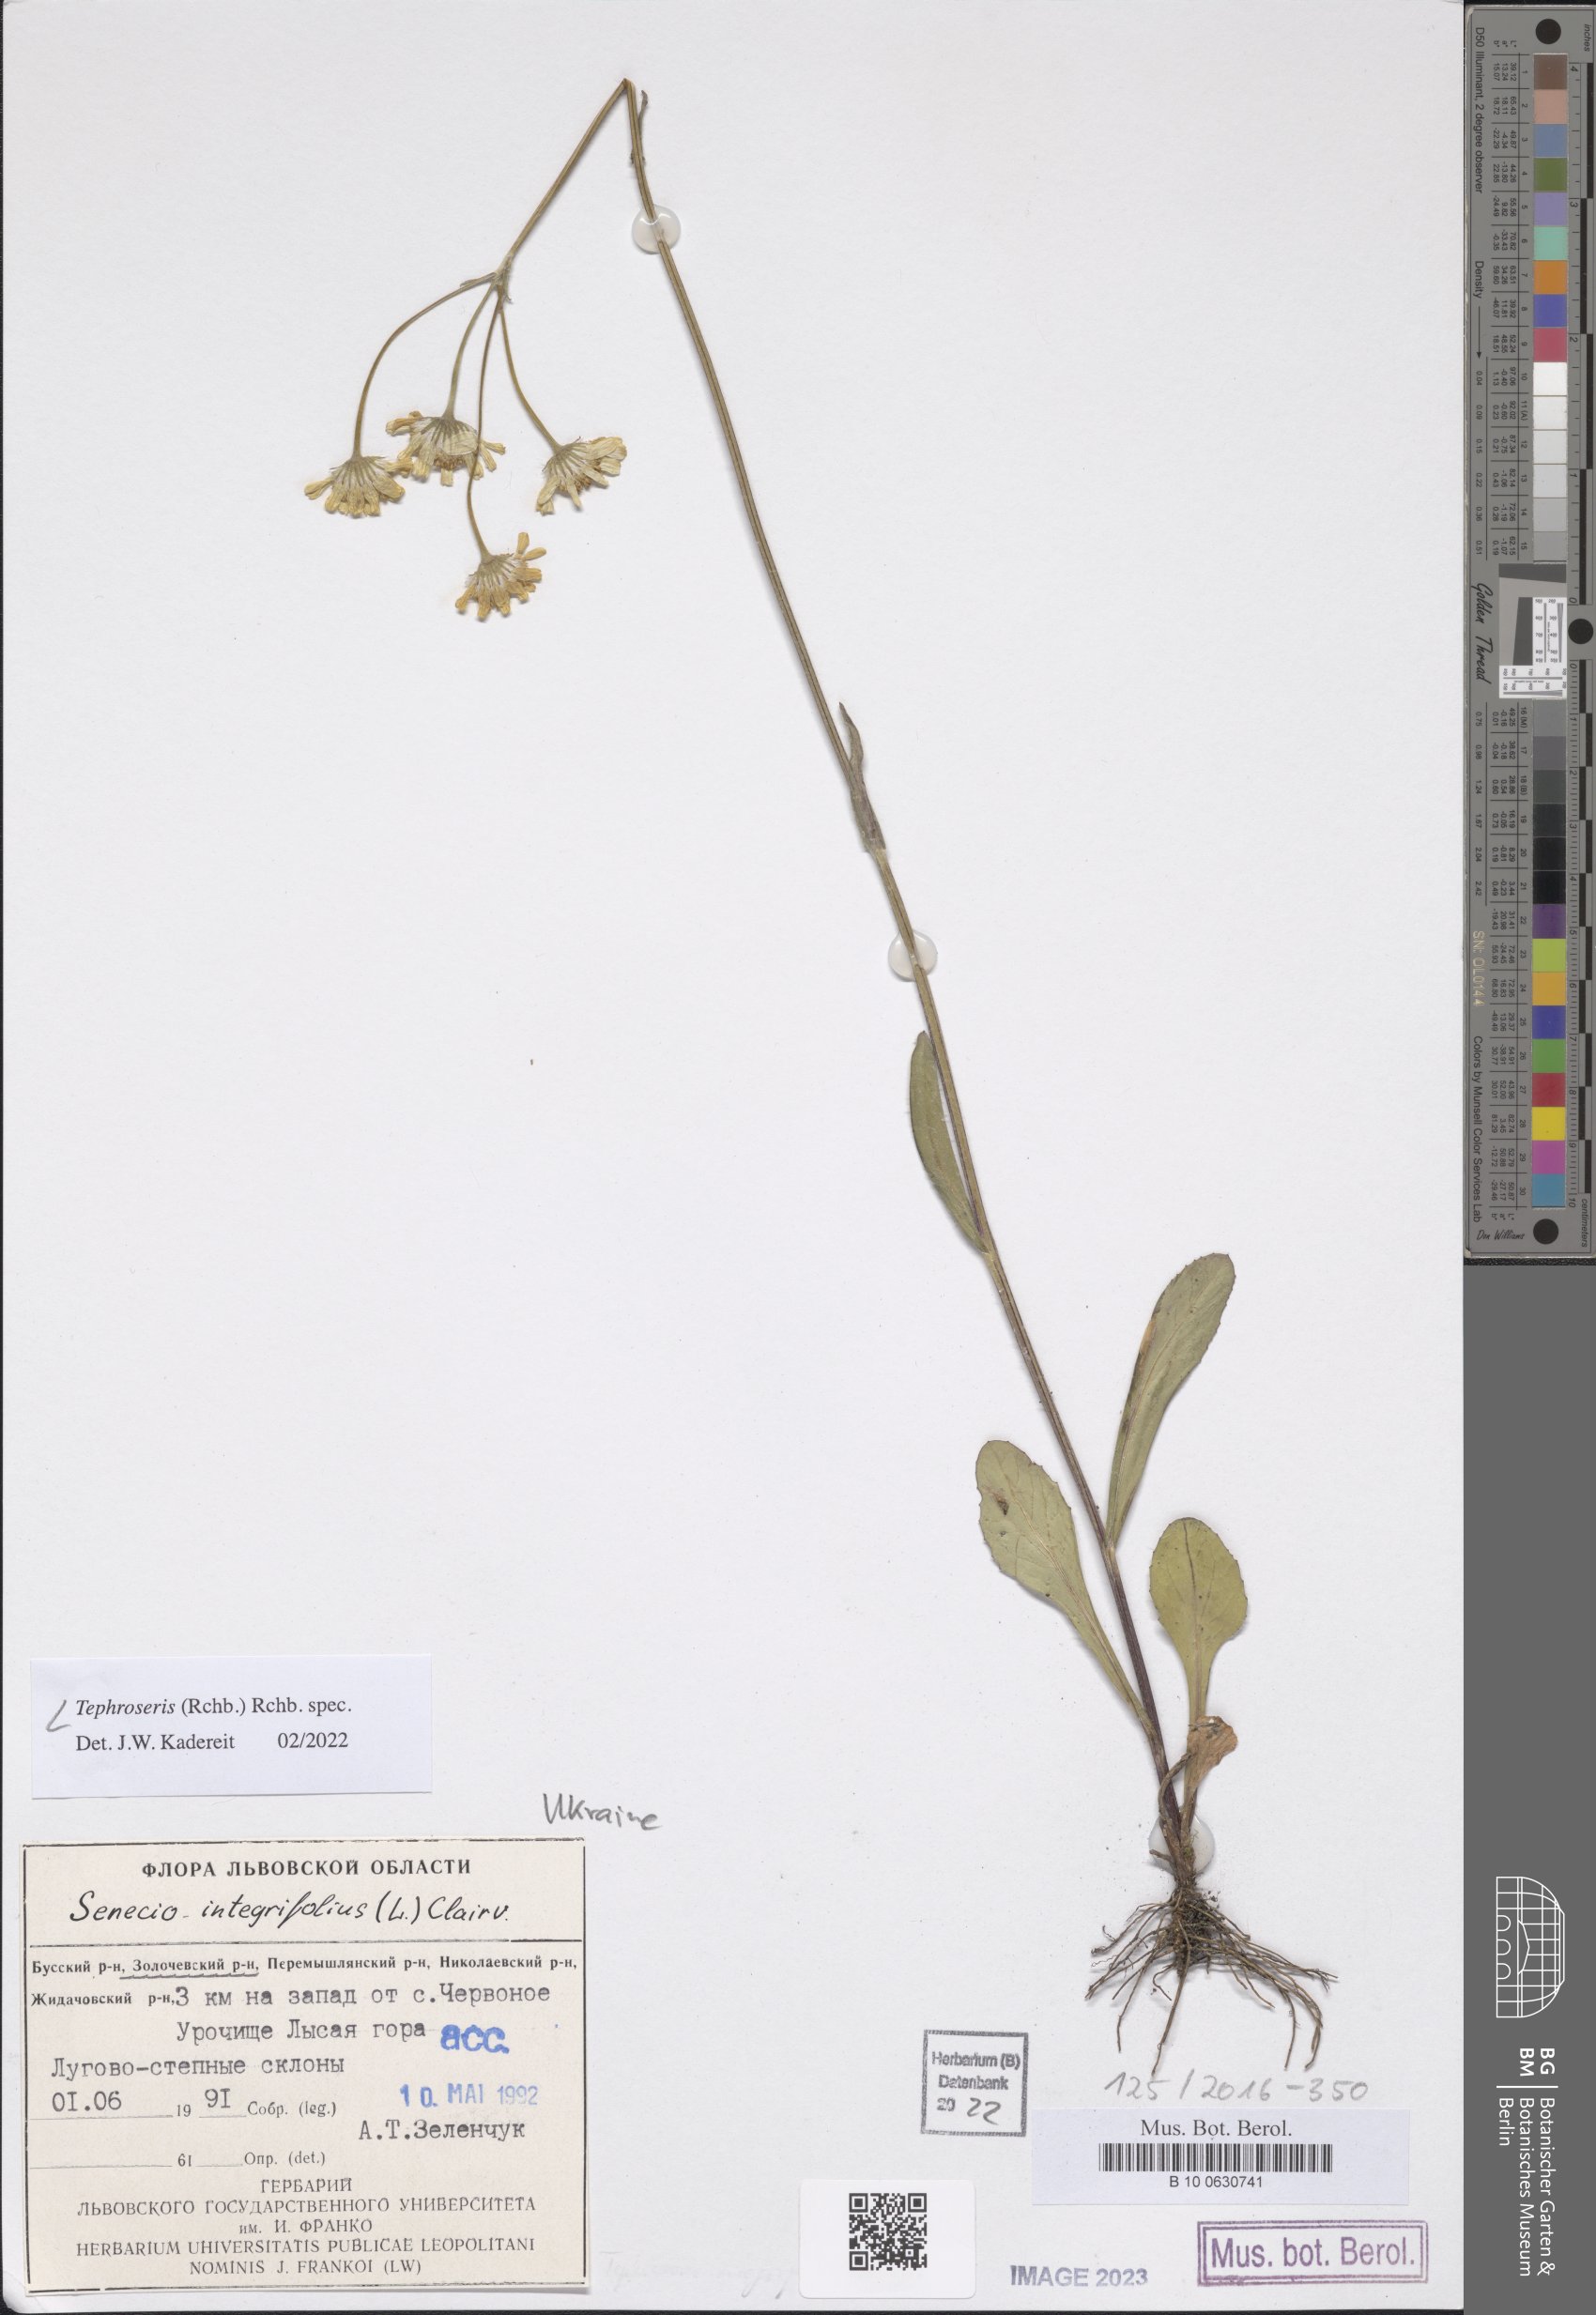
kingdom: Plantae
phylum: Tracheophyta
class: Magnoliopsida
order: Asterales
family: Asteraceae
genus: Tephroseris
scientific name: Tephroseris
